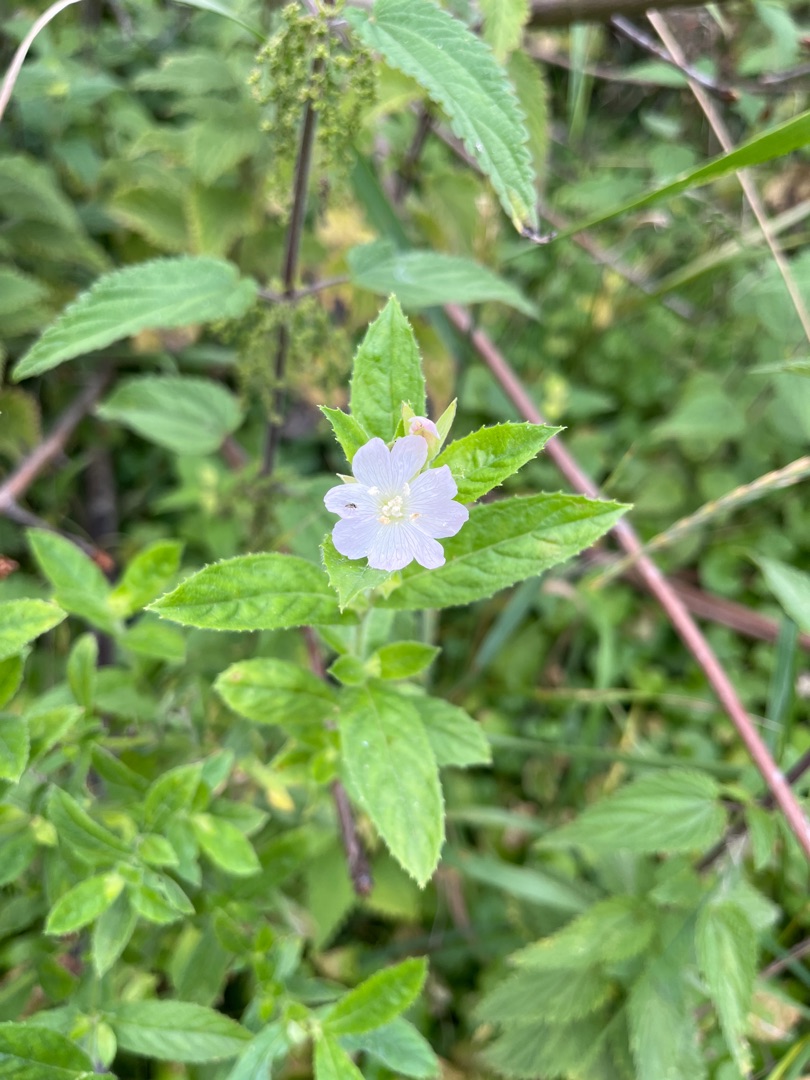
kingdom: Plantae
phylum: Tracheophyta
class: Magnoliopsida
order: Myrtales
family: Onagraceae
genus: Epilobium
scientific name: Epilobium
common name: Dueurtslægten
